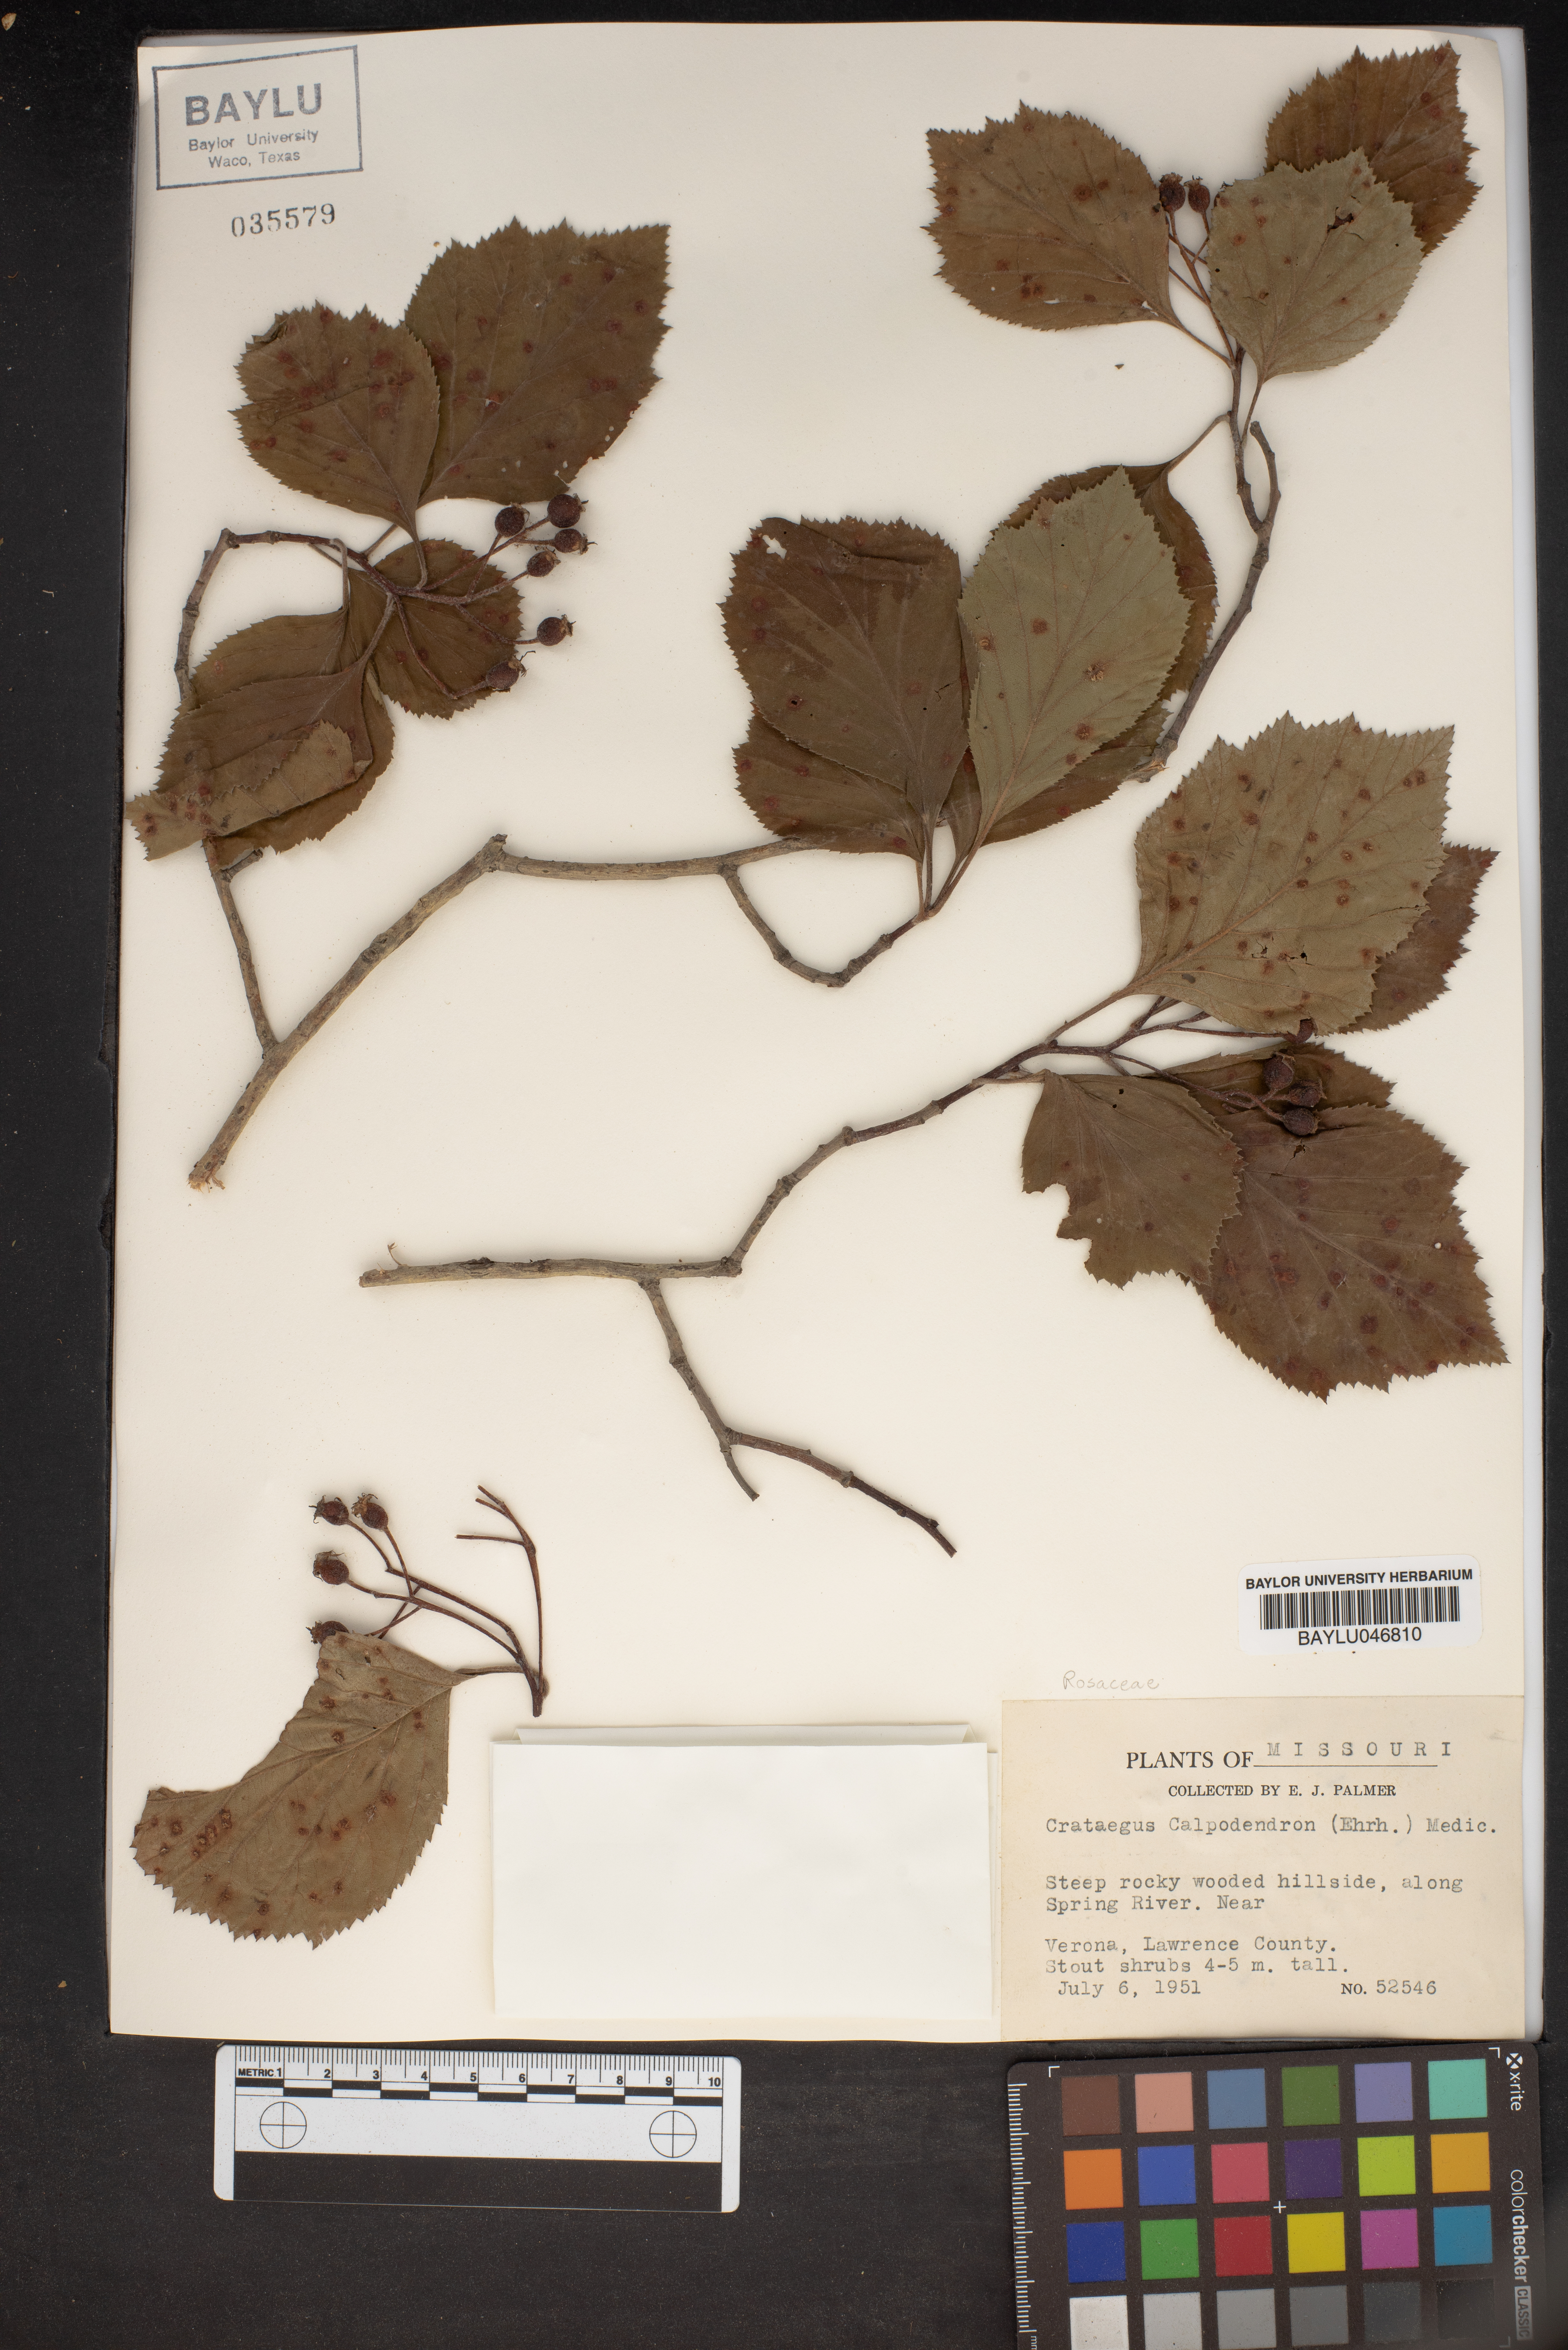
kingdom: Plantae
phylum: Tracheophyta
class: Magnoliopsida
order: Rosales
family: Rosaceae
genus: Crataegus
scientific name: Crataegus calpodendron
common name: Pear hawthorn
